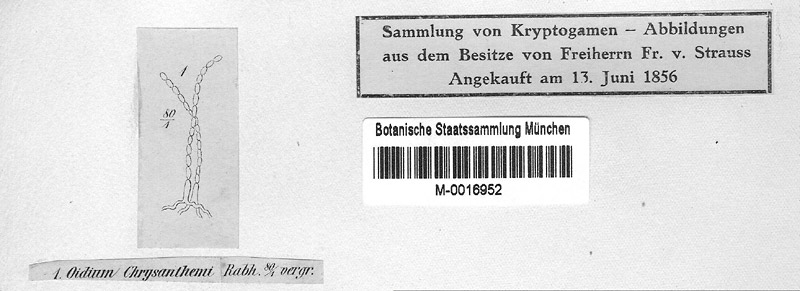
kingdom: Fungi
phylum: Ascomycota
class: Leotiomycetes
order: Helotiales
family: Erysiphaceae
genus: Golovinomyces
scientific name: Golovinomyces chrysanthemi
